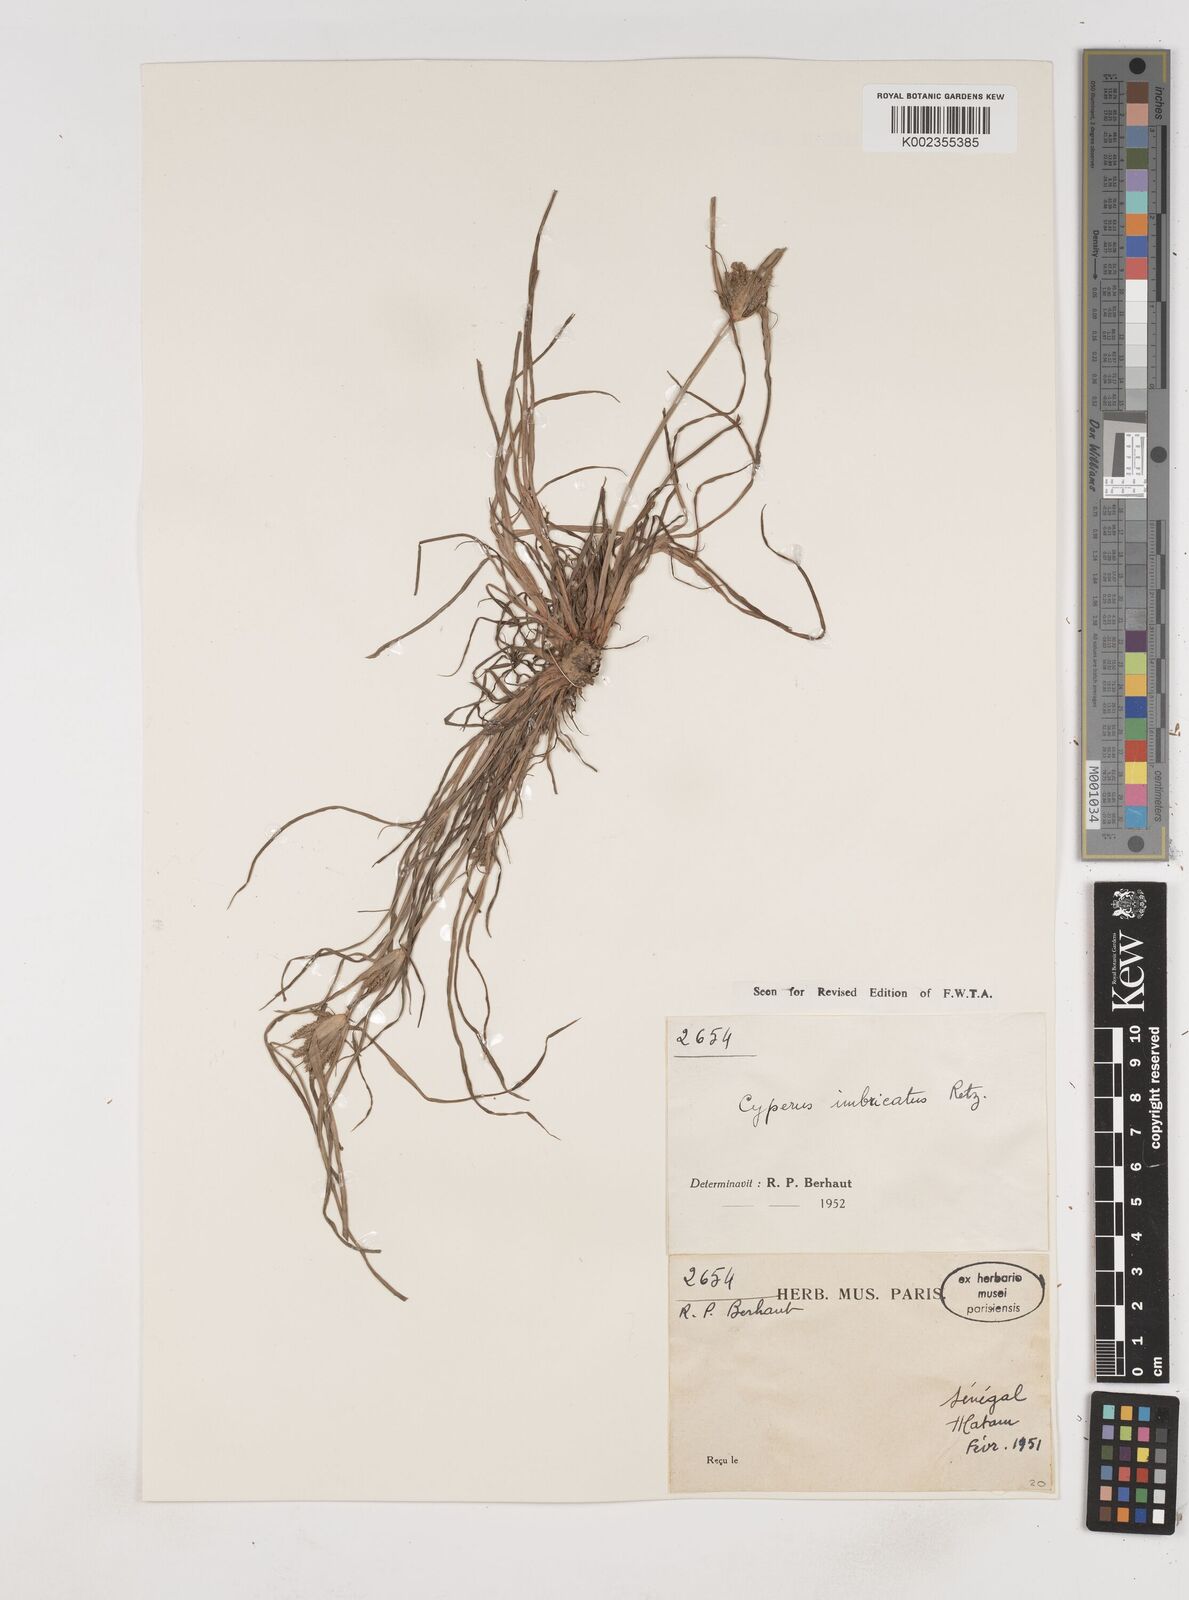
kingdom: Plantae
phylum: Tracheophyta
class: Liliopsida
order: Poales
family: Cyperaceae
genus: Cyperus
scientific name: Cyperus imbricatus
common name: Shingle flatsedge
